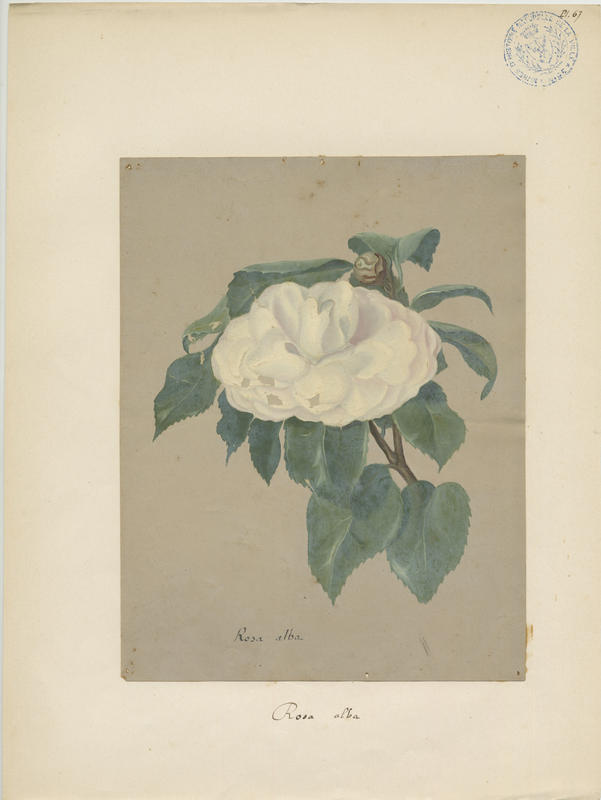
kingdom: Plantae
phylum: Tracheophyta
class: Magnoliopsida
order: Rosales
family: Rosaceae
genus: Rosa
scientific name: Rosa alba
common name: White rose
